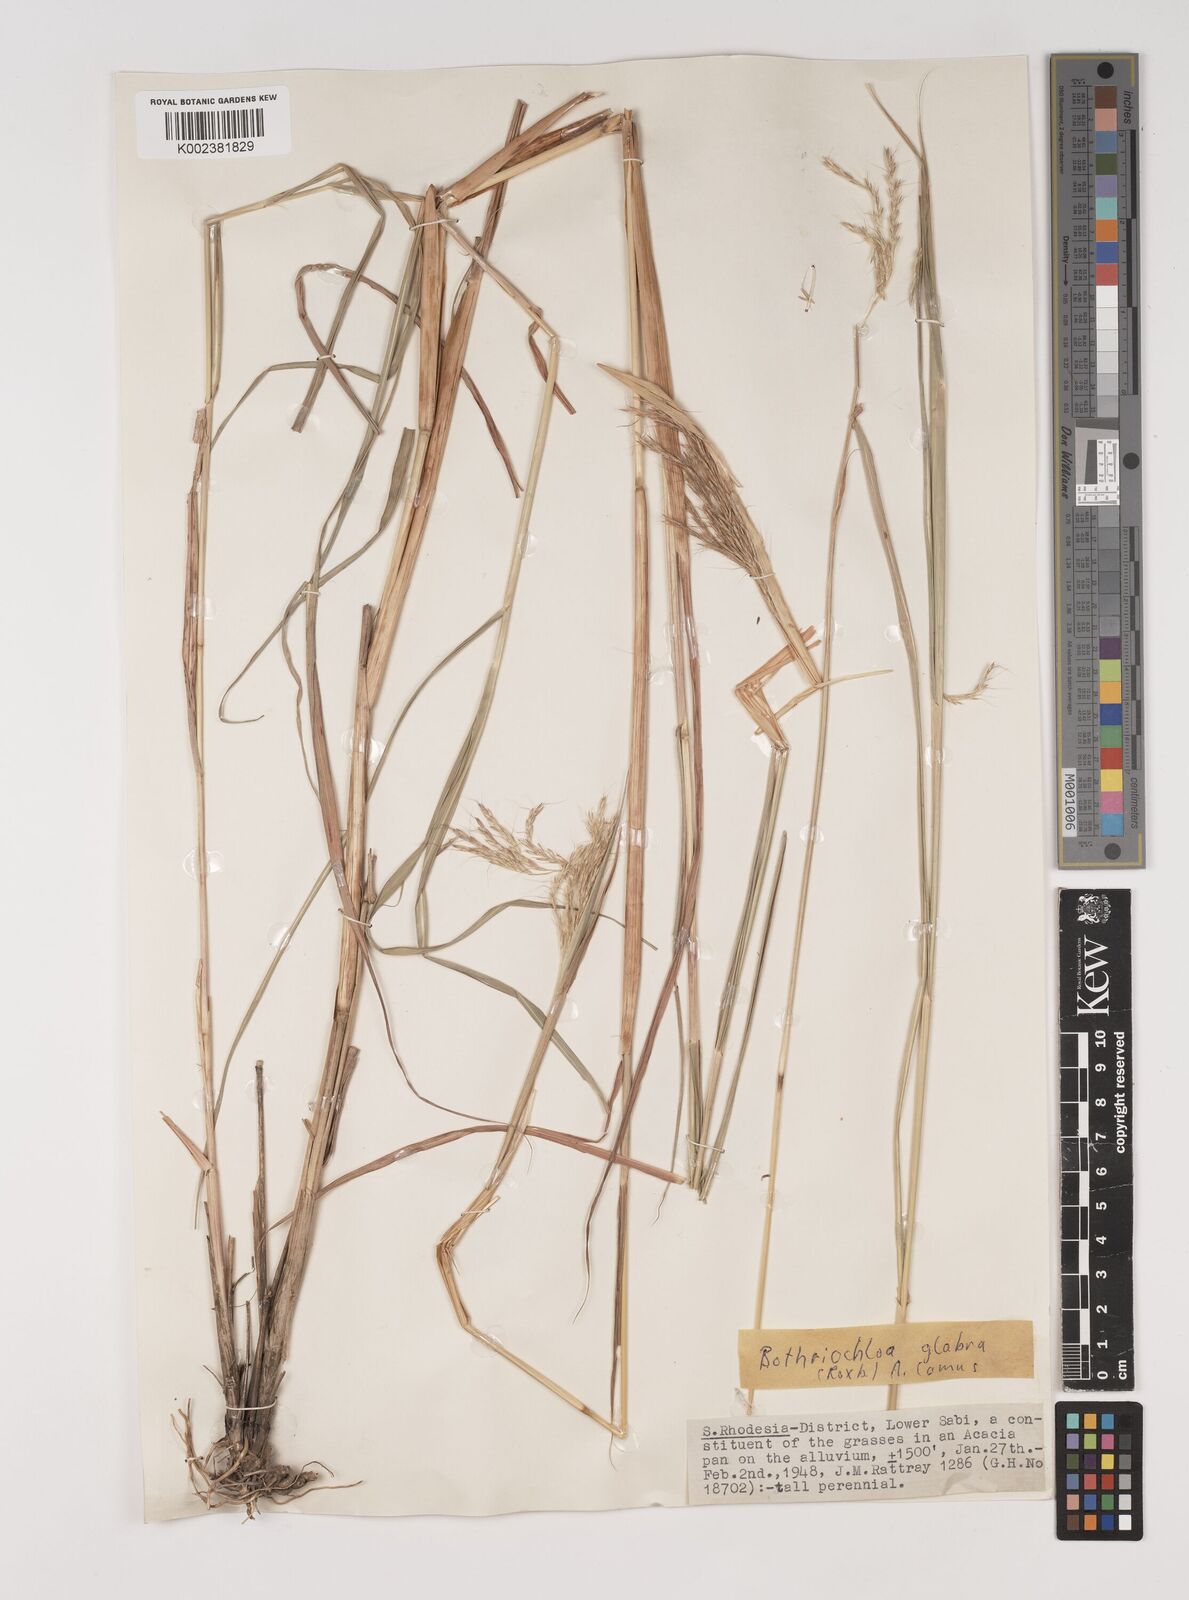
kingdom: Plantae
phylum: Tracheophyta
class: Liliopsida
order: Poales
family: Poaceae
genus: Bothriochloa
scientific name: Bothriochloa bladhii
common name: Caucasian bluestem
